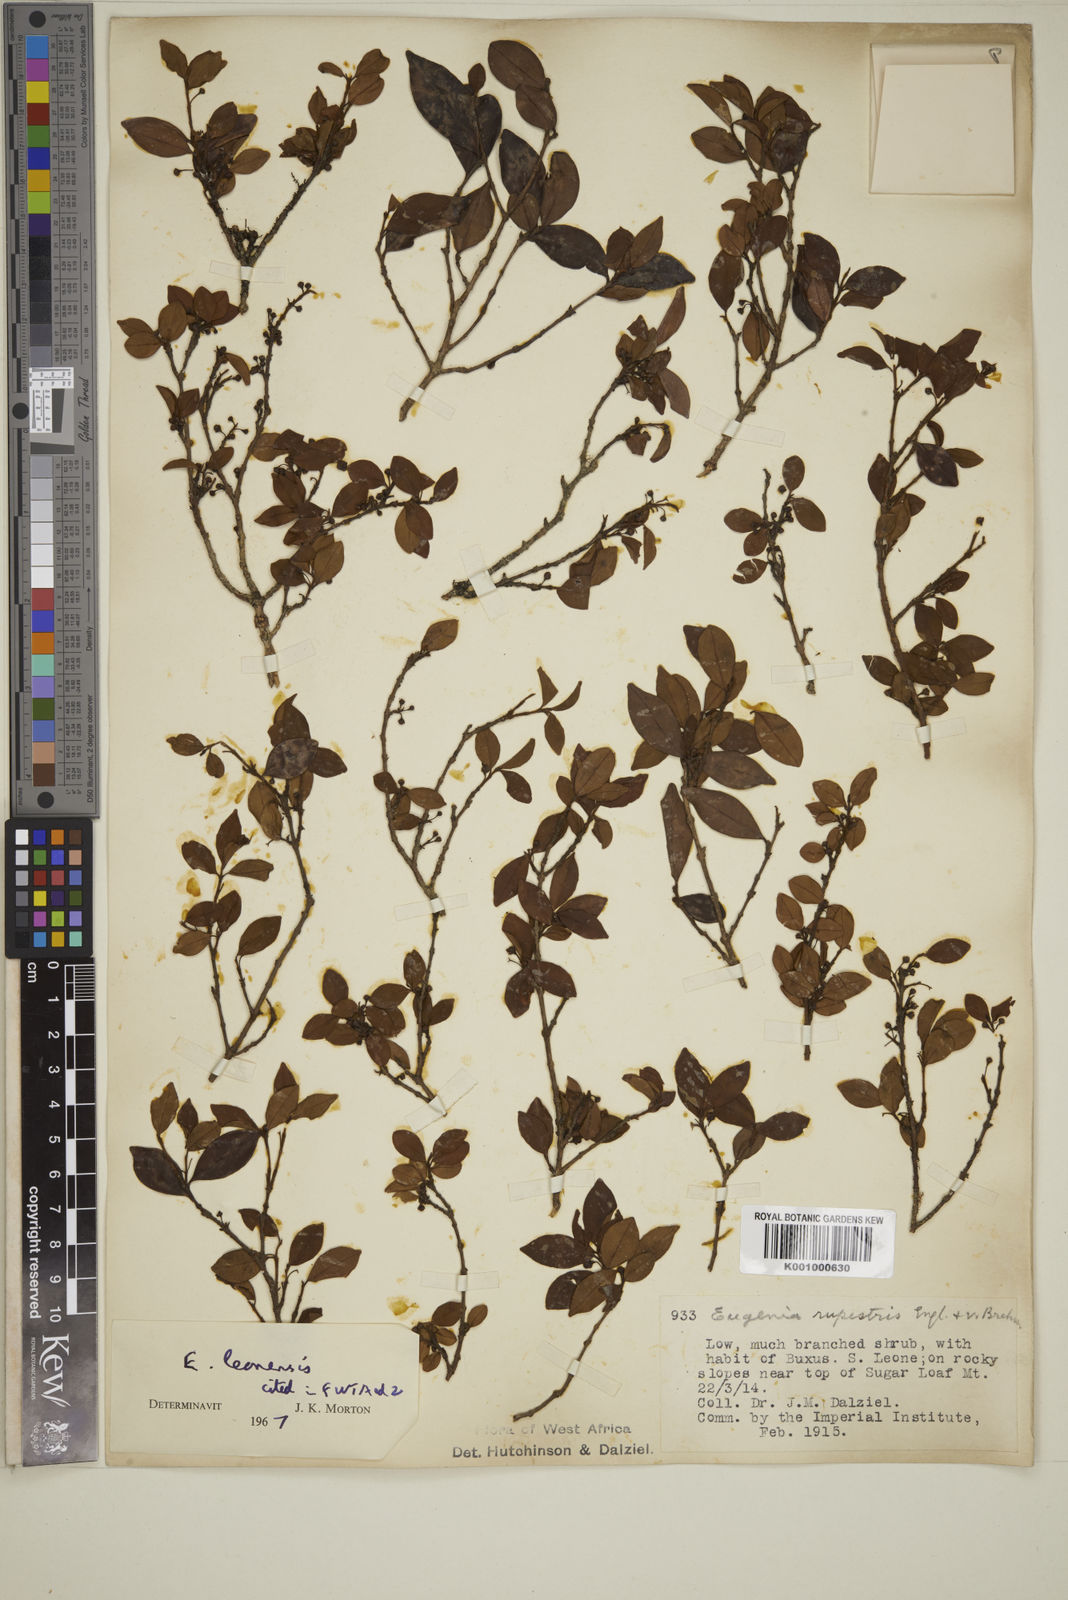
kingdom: Plantae
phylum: Tracheophyta
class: Magnoliopsida
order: Myrtales
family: Myrtaceae
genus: Eugenia
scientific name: Eugenia leonensis
